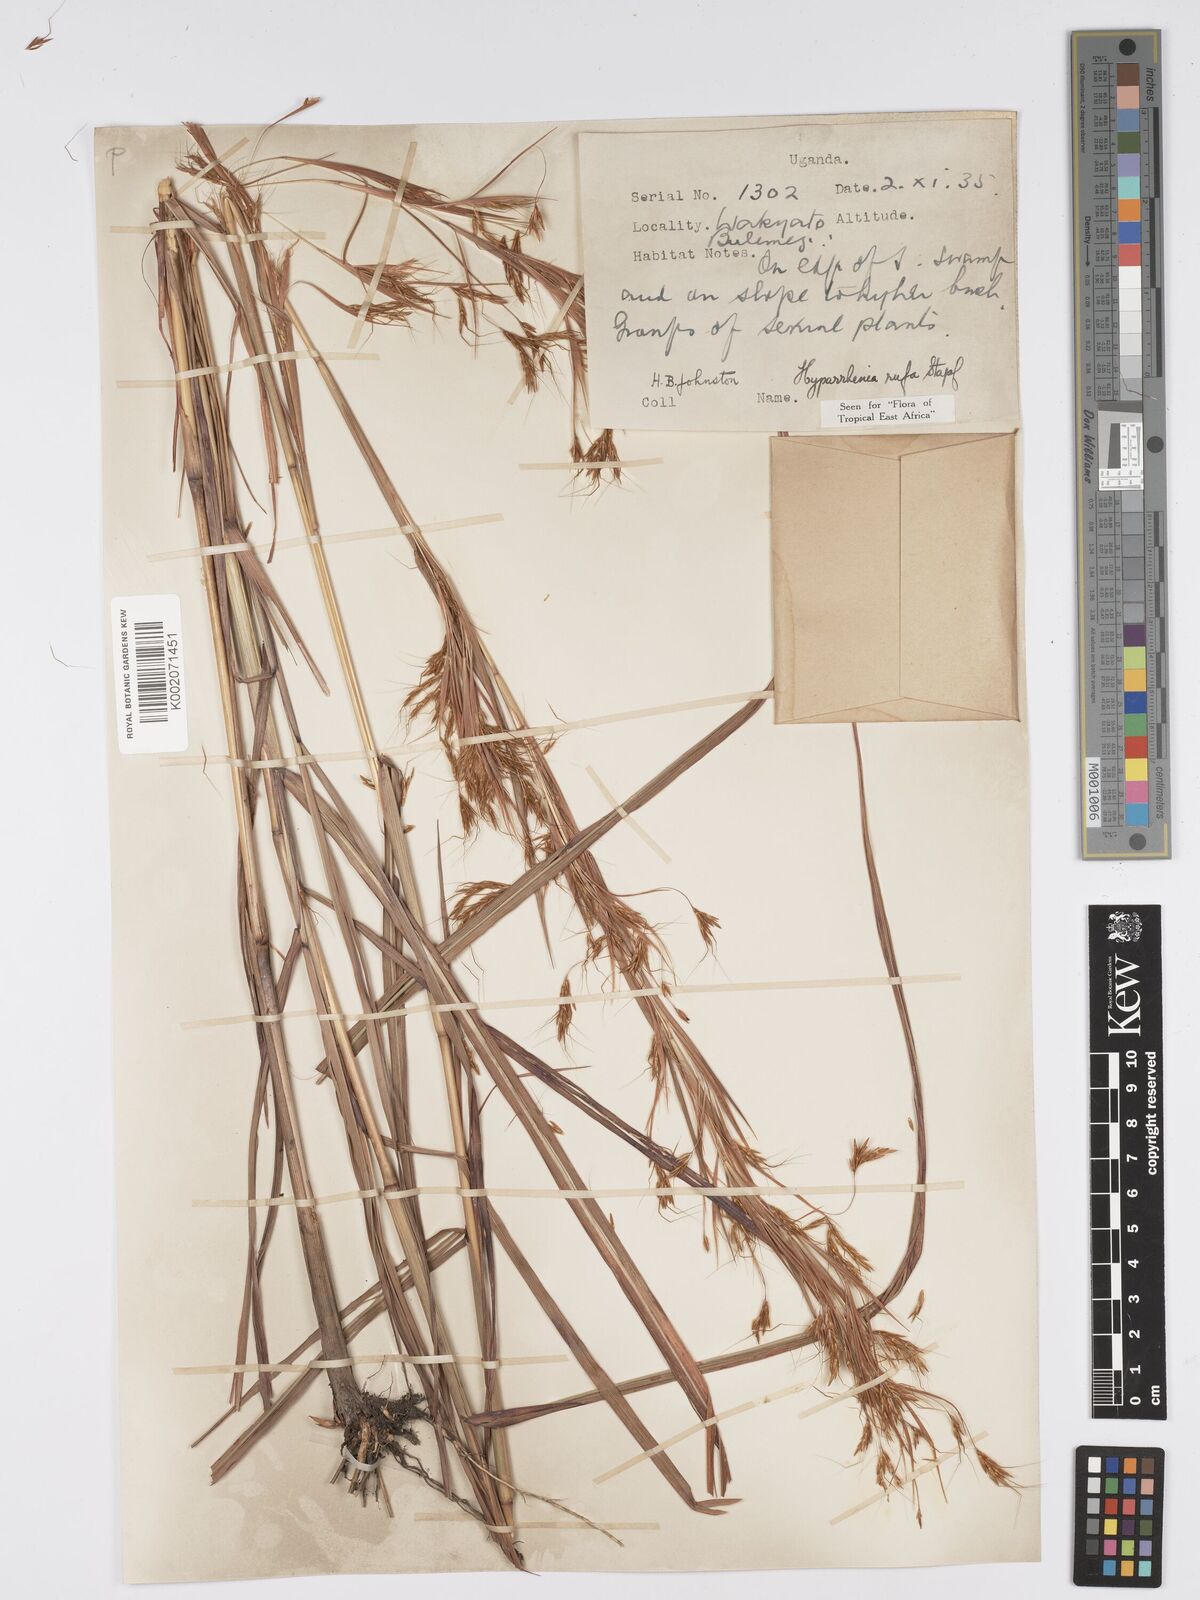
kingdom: Plantae
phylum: Tracheophyta
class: Liliopsida
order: Poales
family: Poaceae
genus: Hyparrhenia
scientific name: Hyparrhenia rufa
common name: Jaraguagrass
